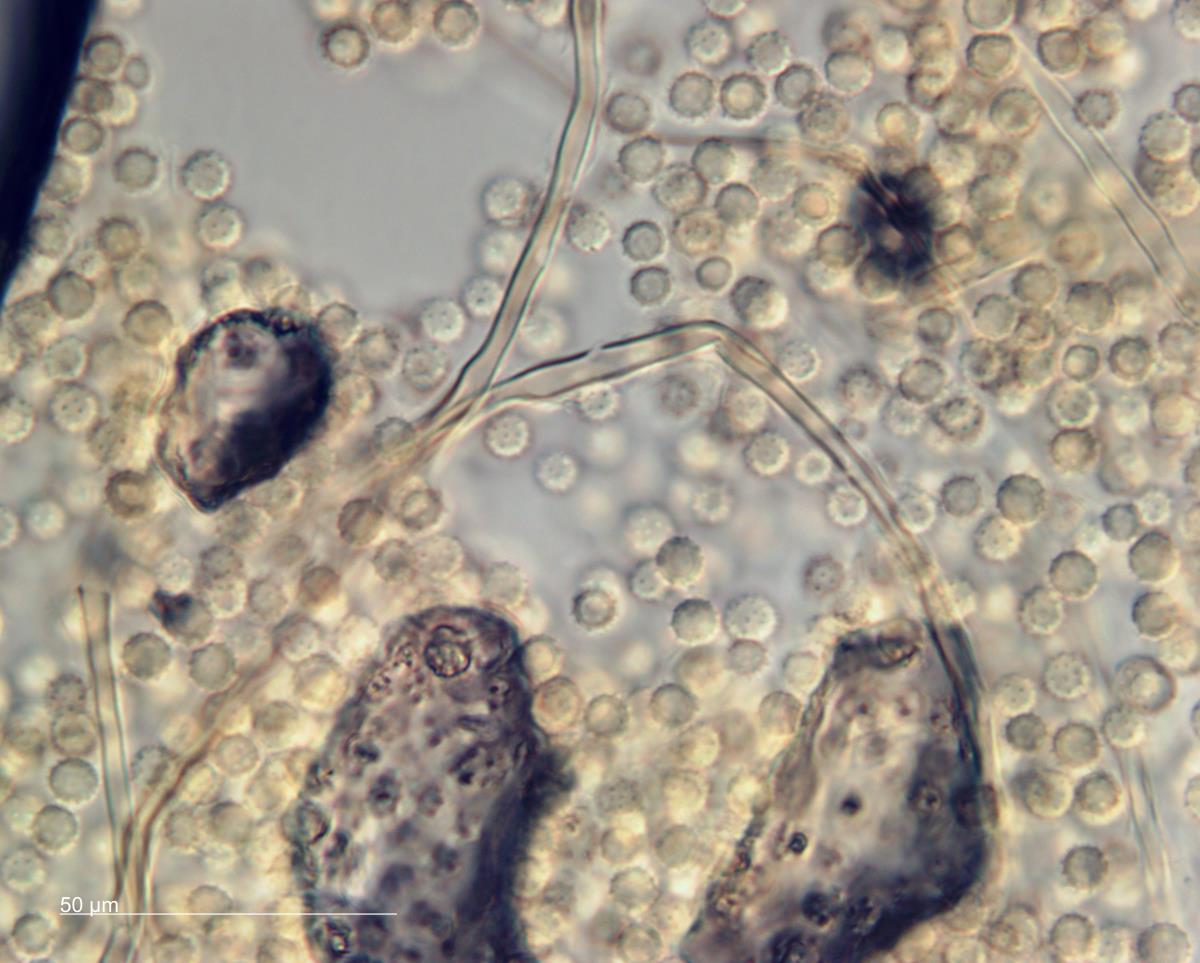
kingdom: Fungi
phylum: Basidiomycota
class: Agaricomycetes
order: Agaricales
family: Lycoperdaceae
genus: Calvatia
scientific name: Calvatia
